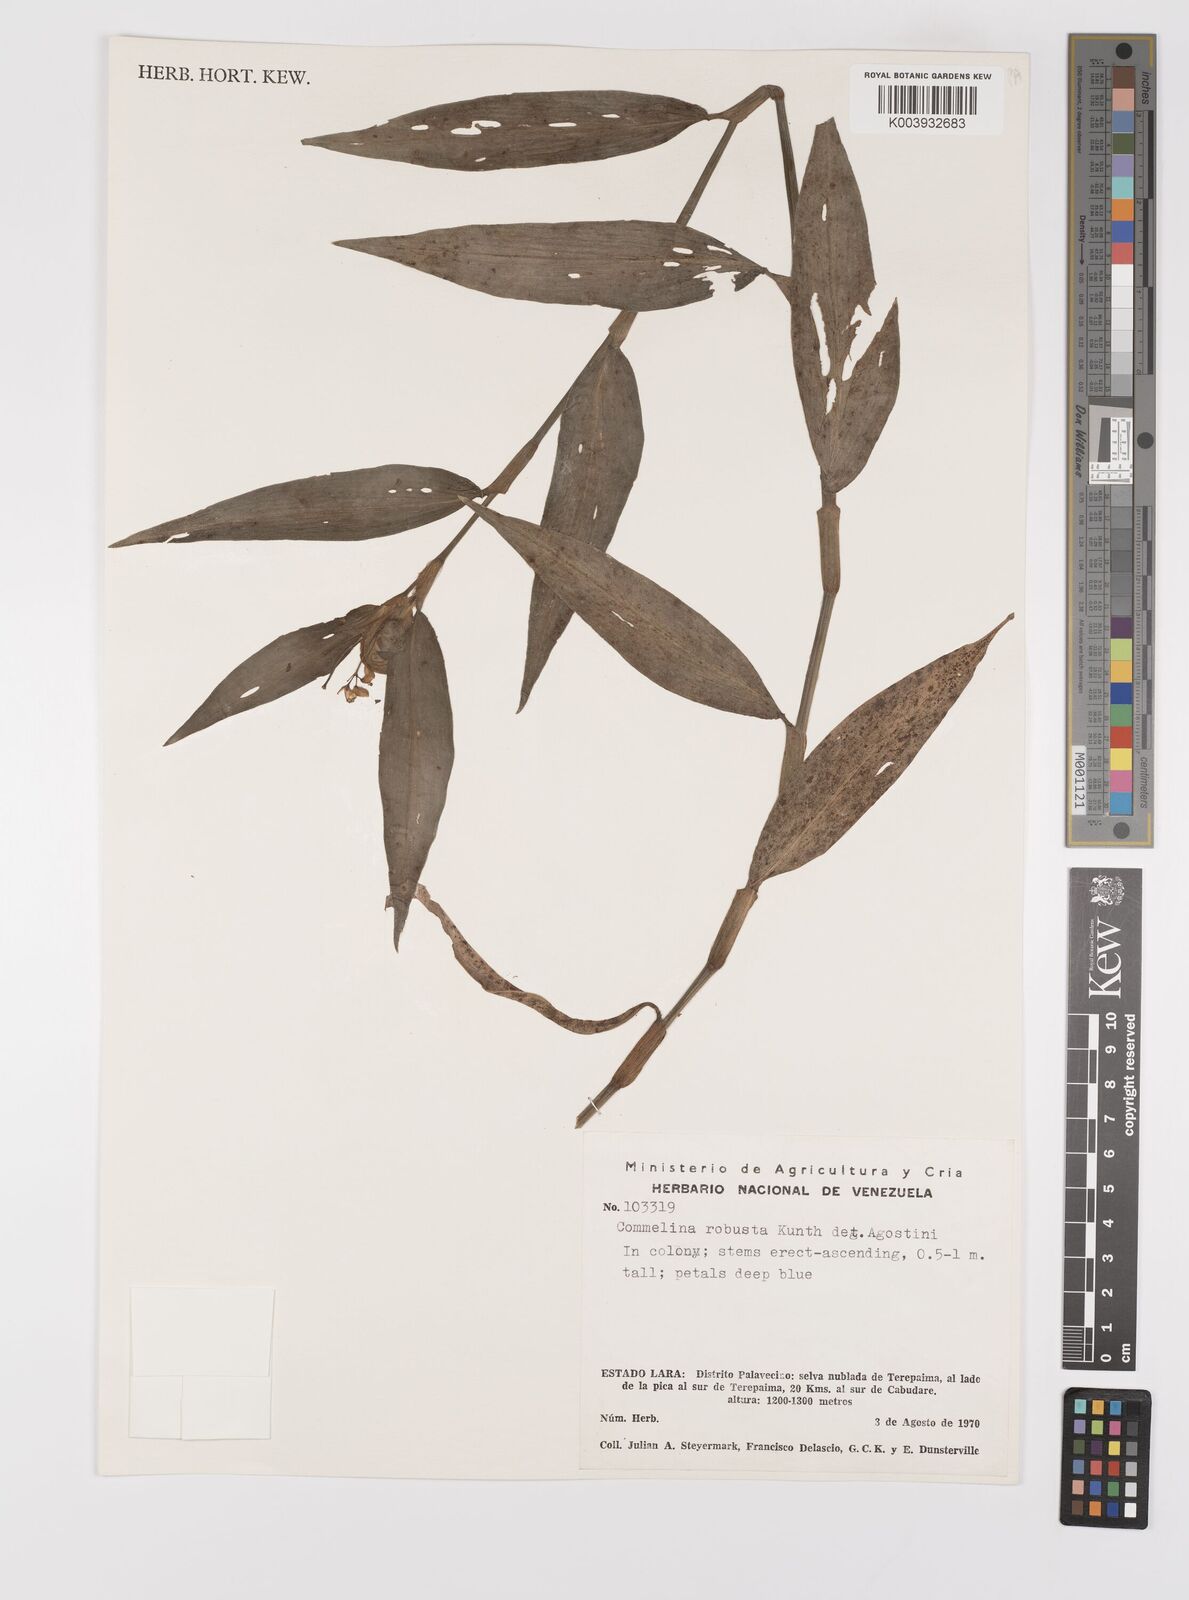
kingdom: Plantae
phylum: Tracheophyta
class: Liliopsida
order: Commelinales
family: Commelinaceae
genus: Commelina
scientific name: Commelina obliqua
